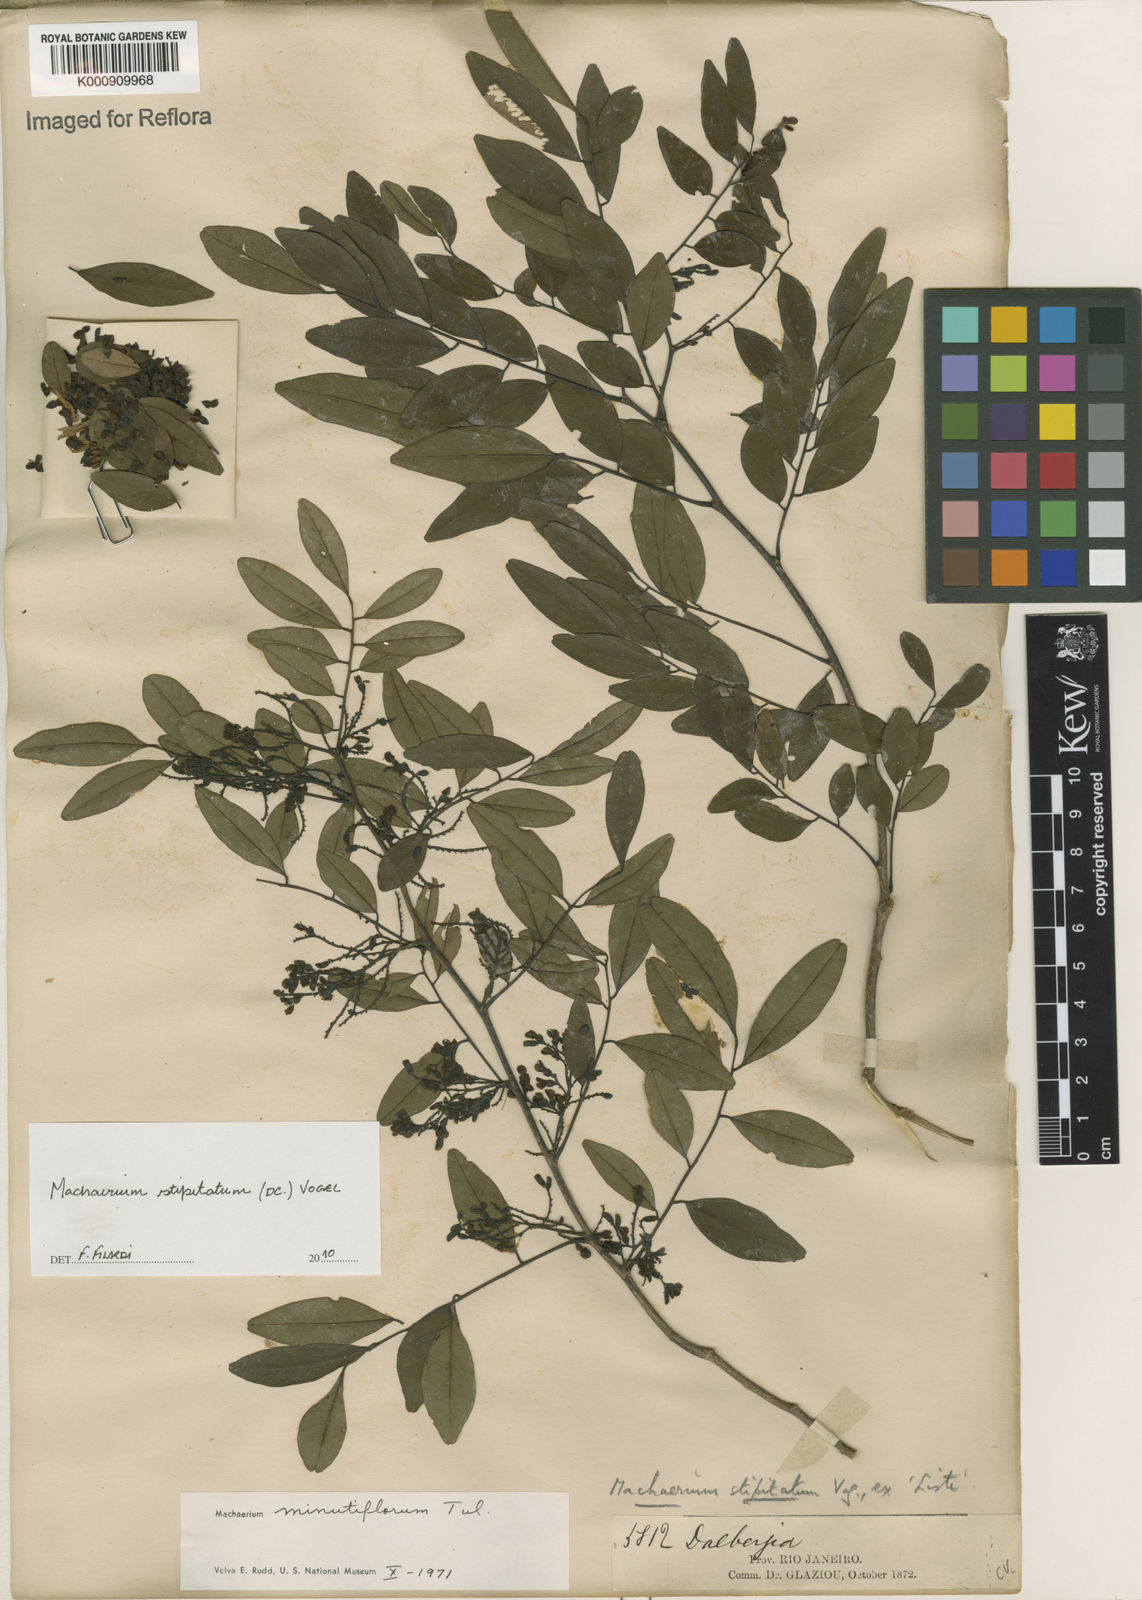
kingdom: Plantae
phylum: Tracheophyta
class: Magnoliopsida
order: Fabales
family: Fabaceae
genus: Machaerium
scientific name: Machaerium stipitatum
